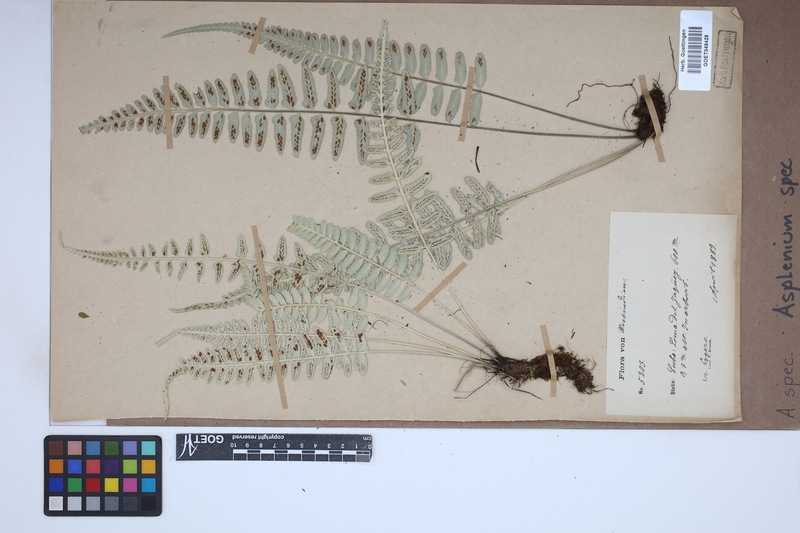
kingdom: Plantae
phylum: Tracheophyta
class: Polypodiopsida
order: Polypodiales
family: Aspleniaceae
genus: Asplenium
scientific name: Asplenium
